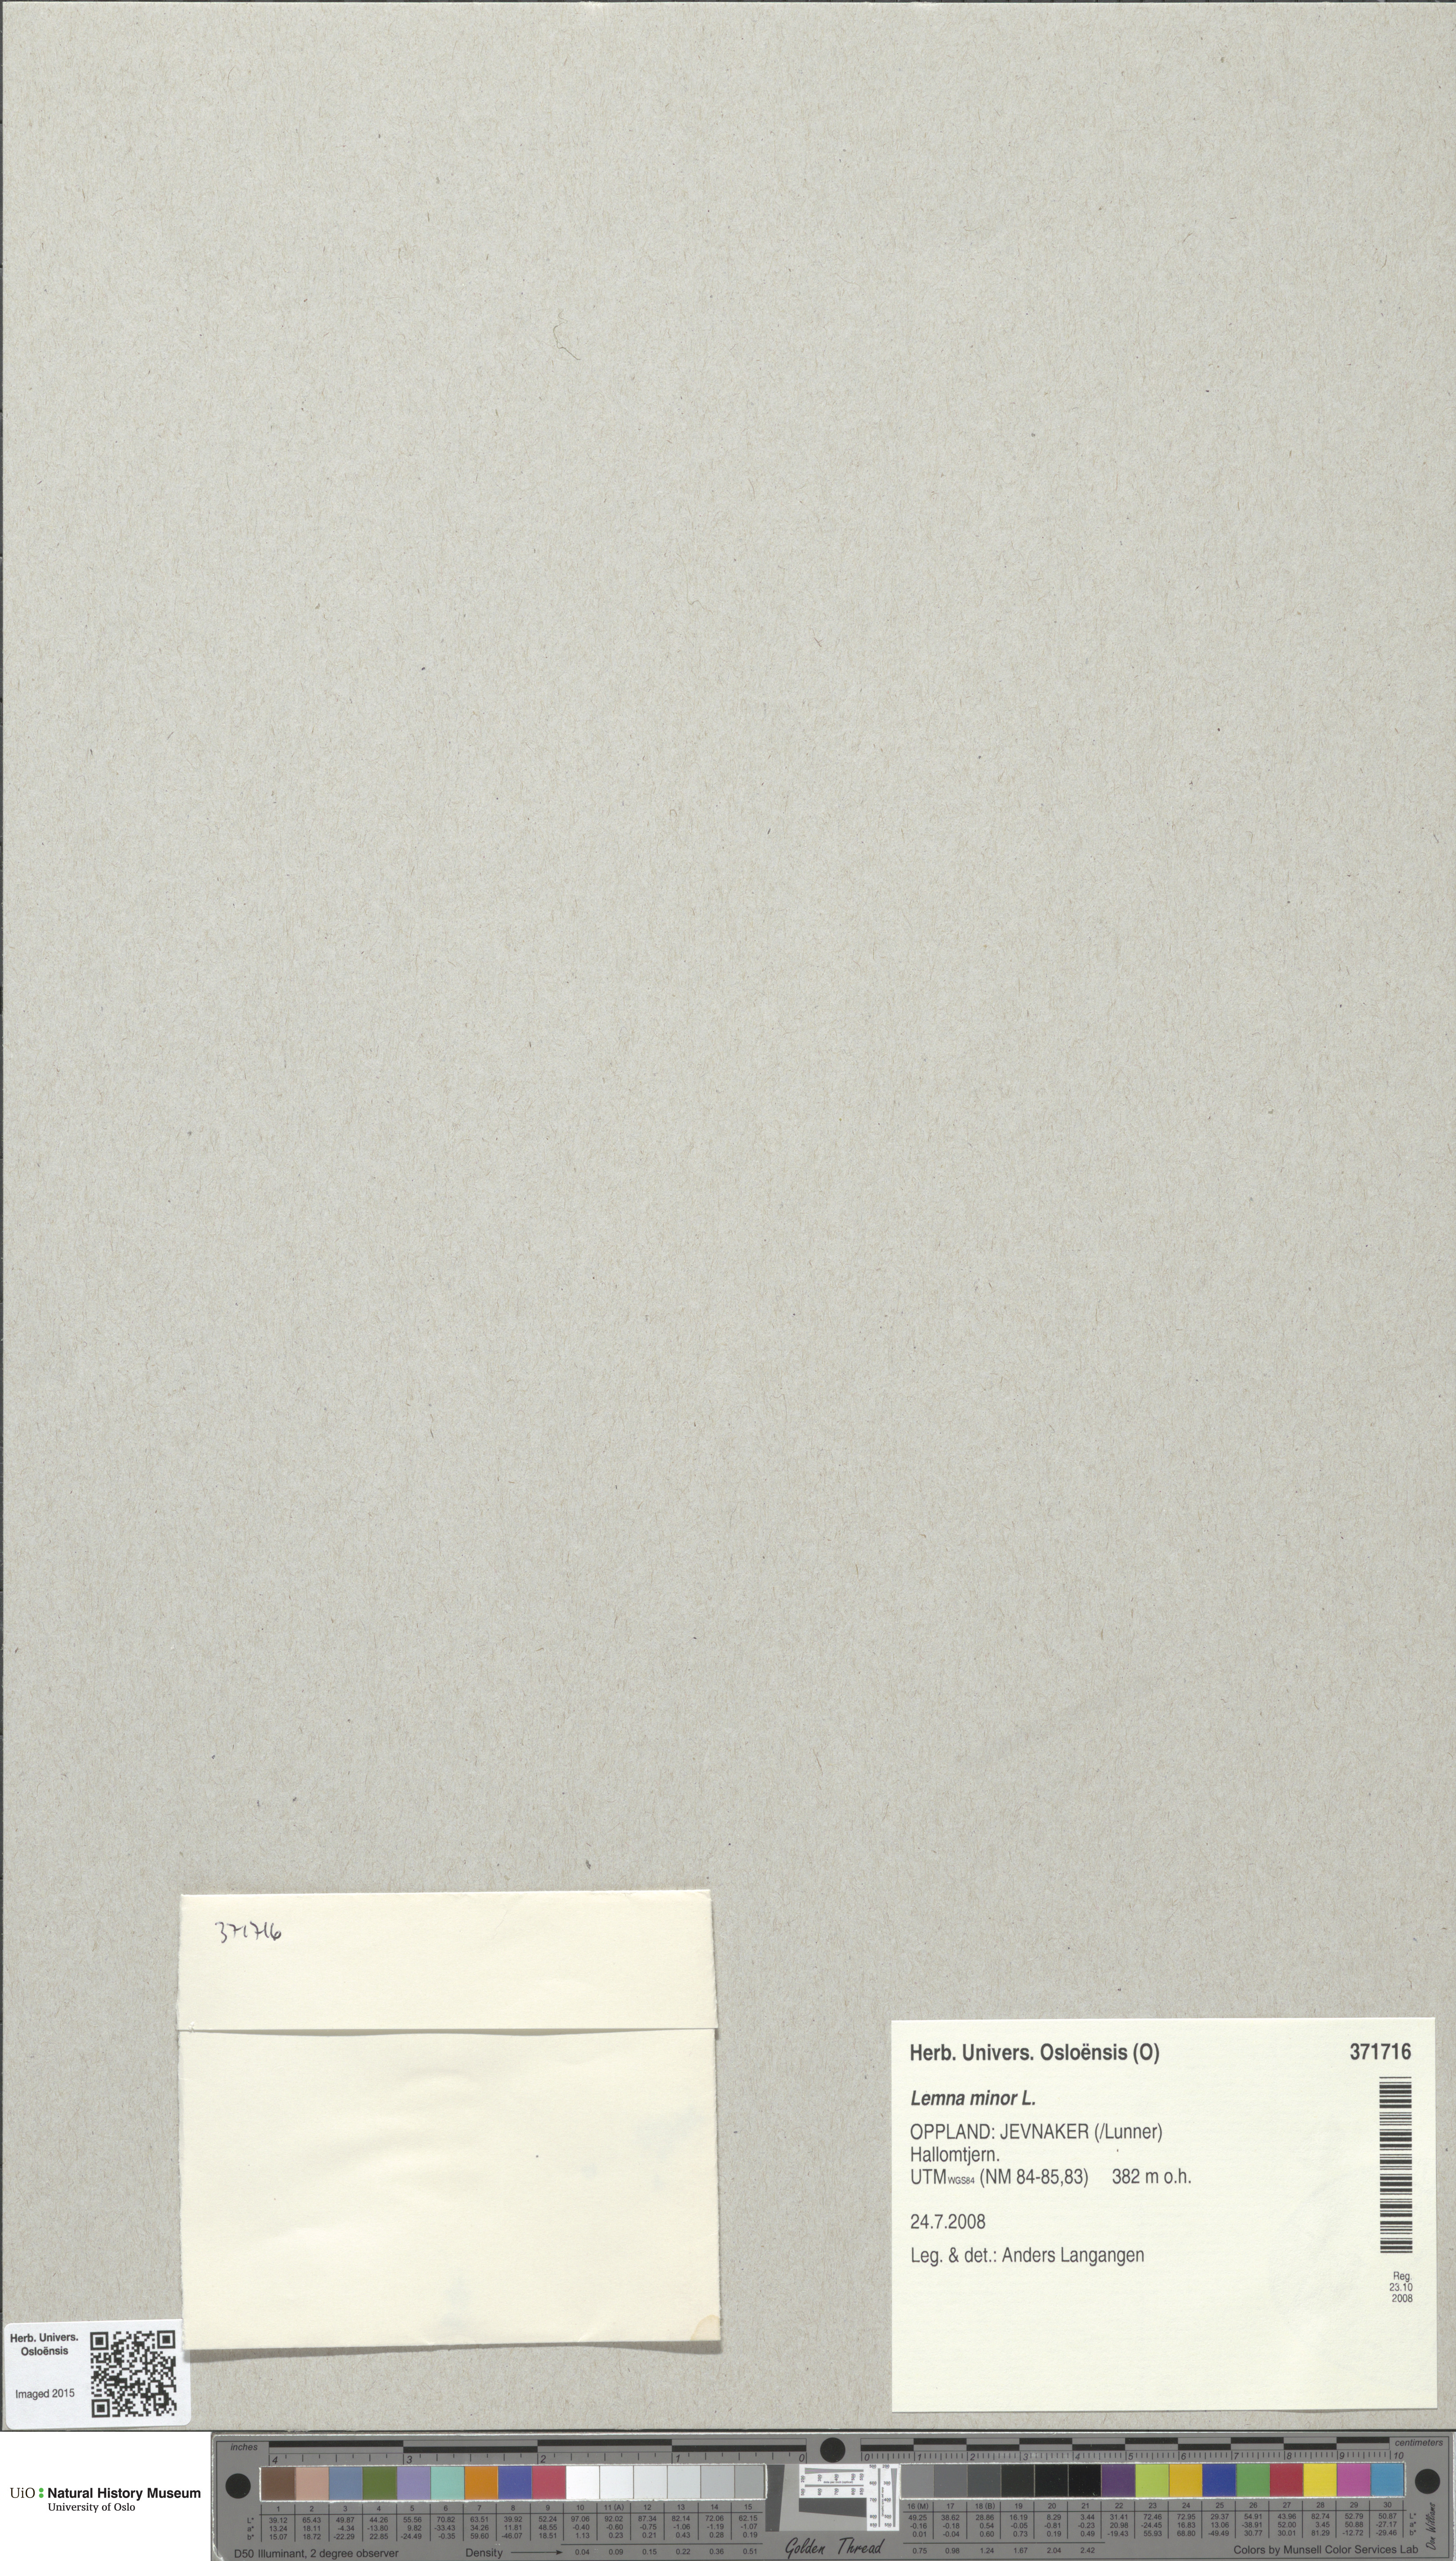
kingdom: Plantae
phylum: Tracheophyta
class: Liliopsida
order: Alismatales
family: Araceae
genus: Lemna
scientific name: Lemna minor
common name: Common duckweed
